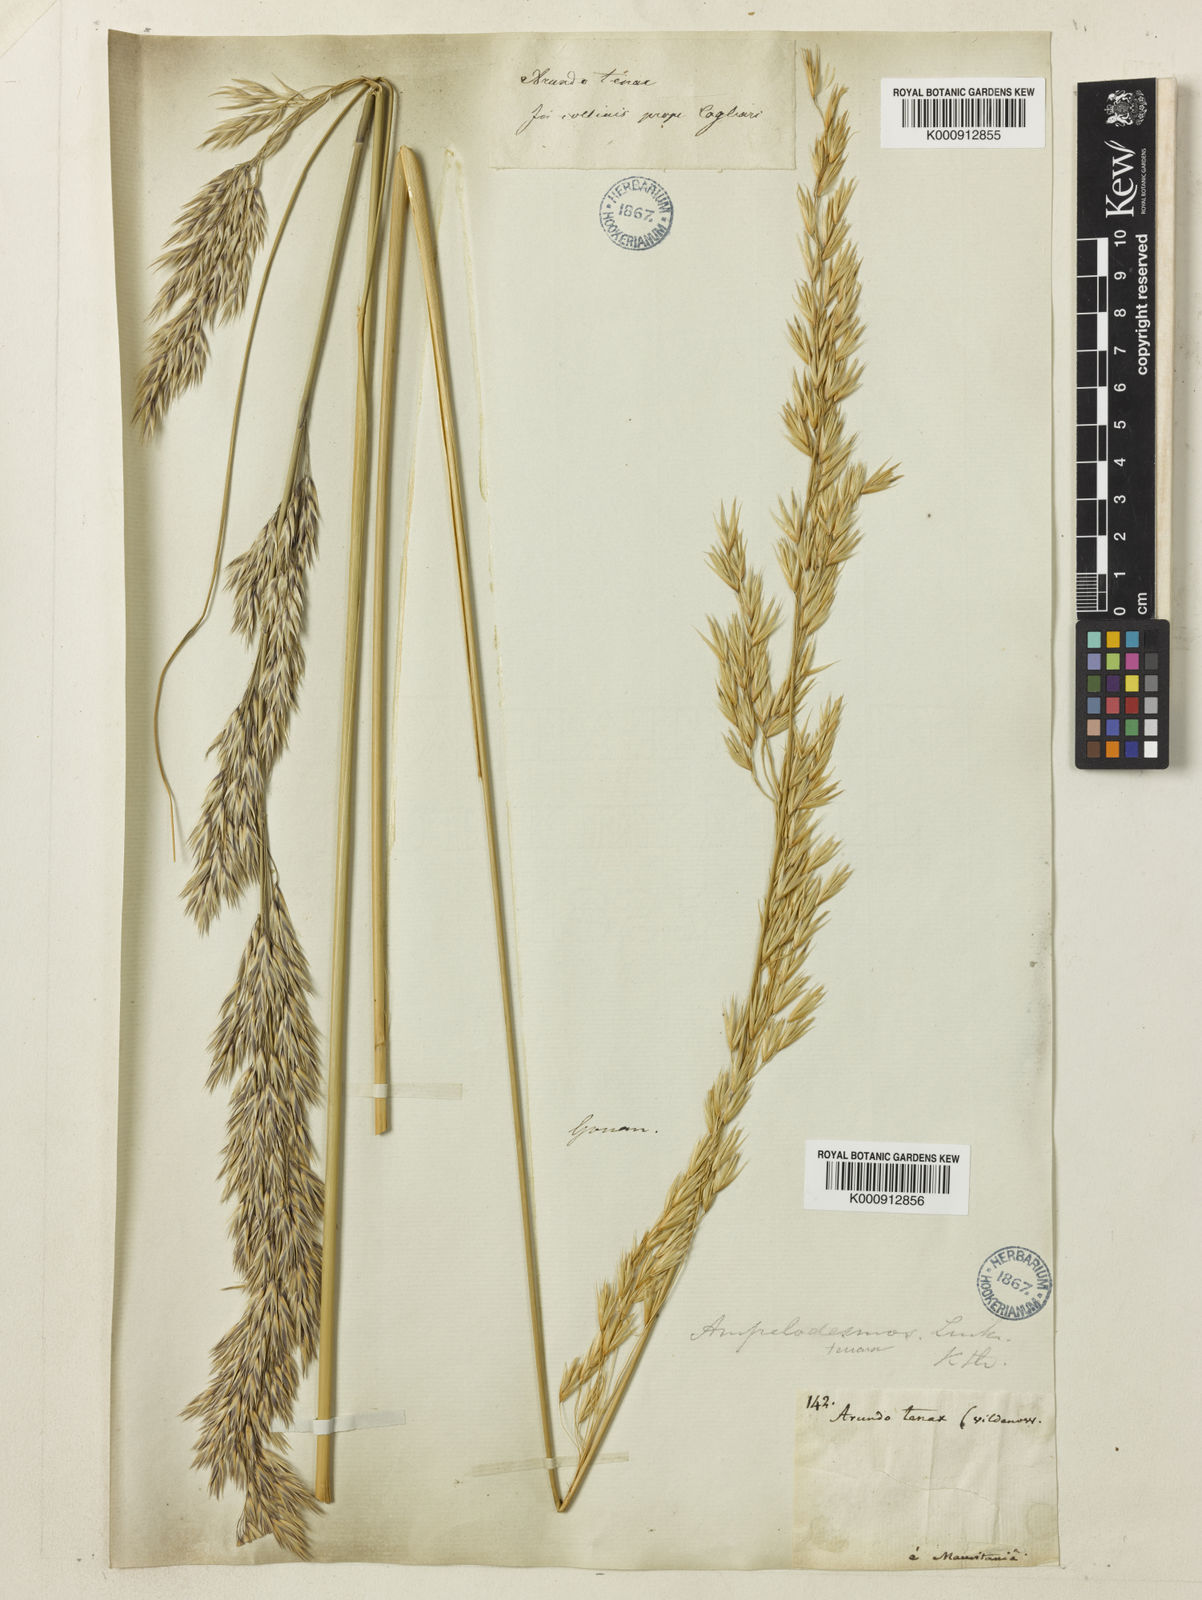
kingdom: Plantae
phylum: Tracheophyta
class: Liliopsida
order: Poales
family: Poaceae
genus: Ampelodesmos
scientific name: Ampelodesmos mauritanicus
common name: Mauritanian grass
